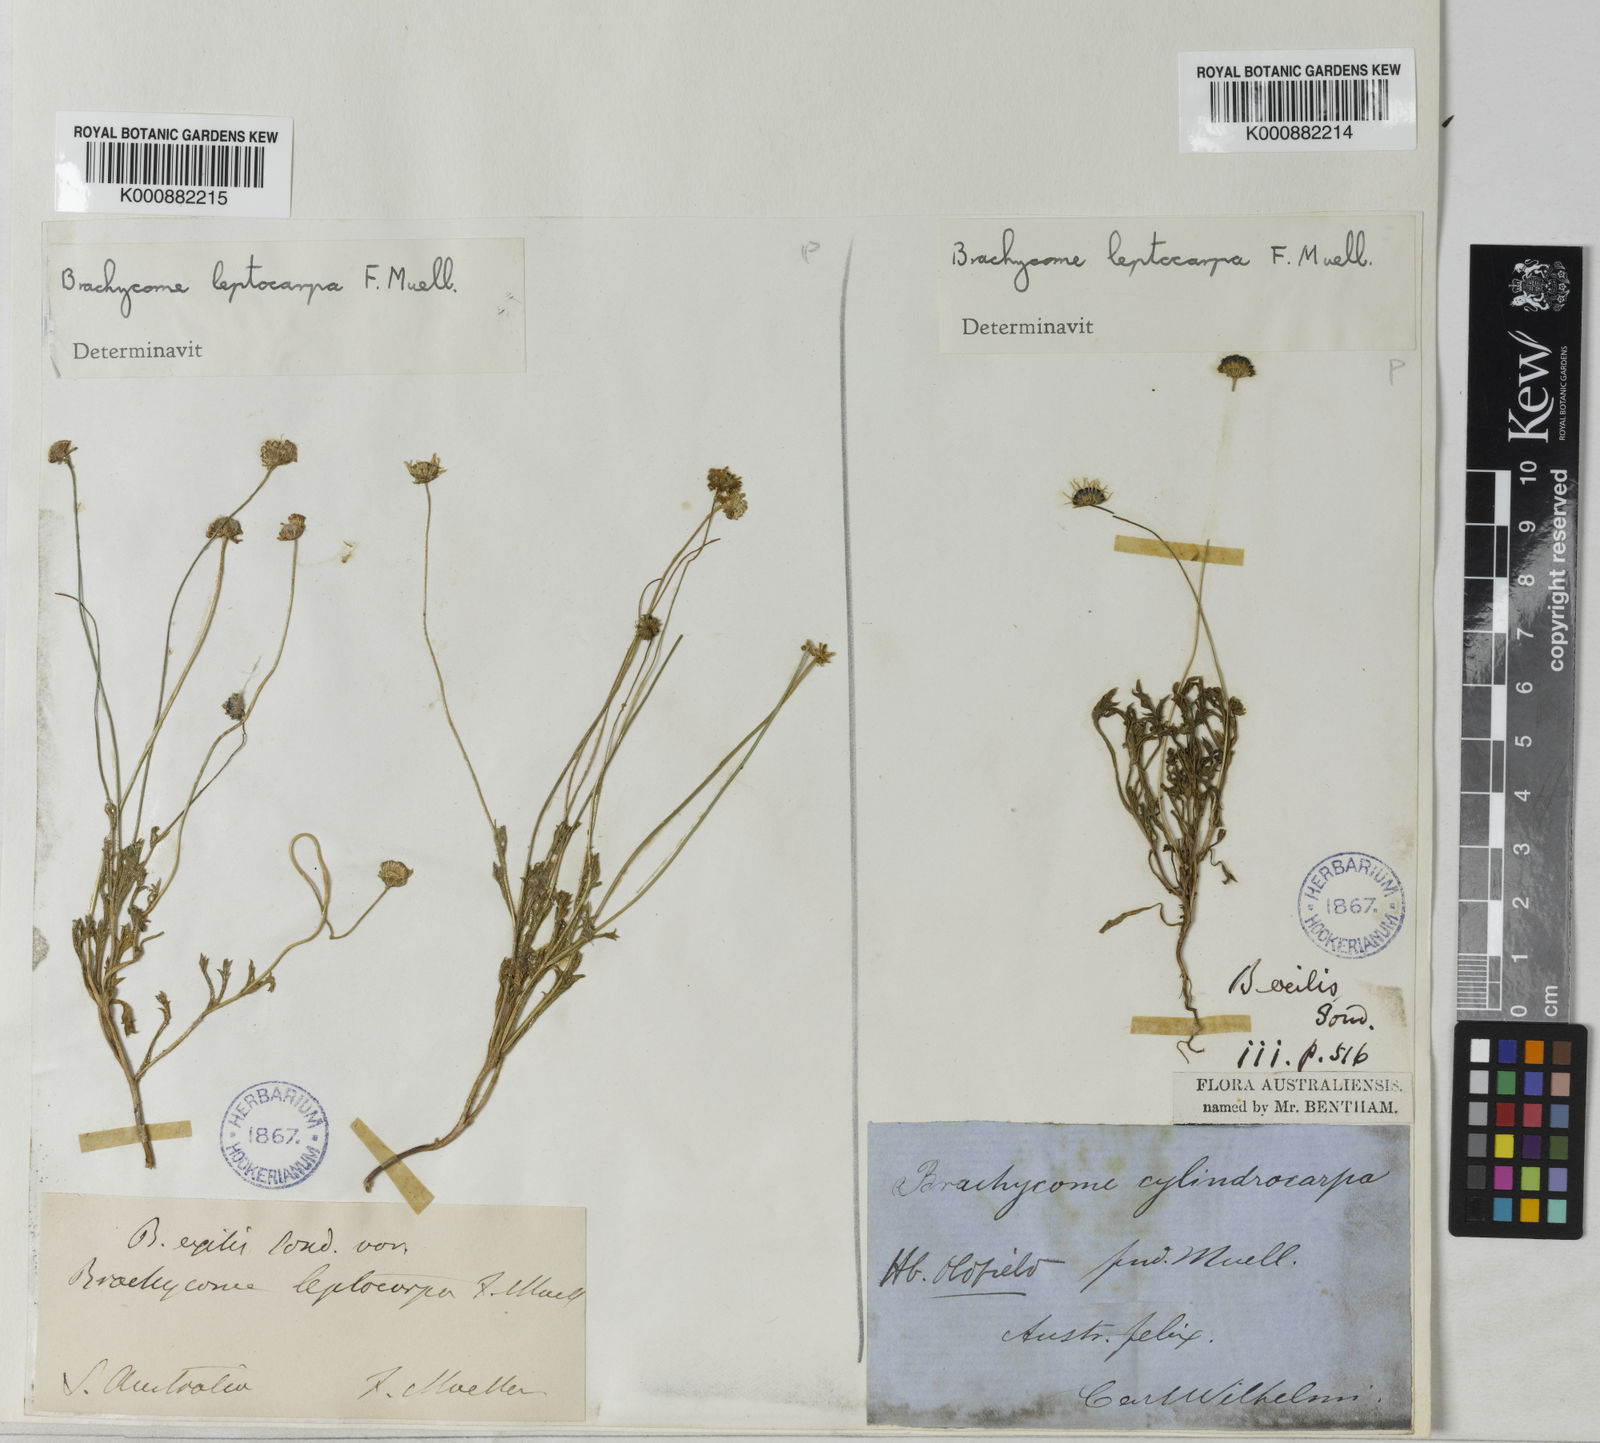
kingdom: Plantae
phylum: Tracheophyta
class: Magnoliopsida
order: Asterales
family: Asteraceae
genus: Brachyscome
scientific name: Brachyscome leptocarpa
